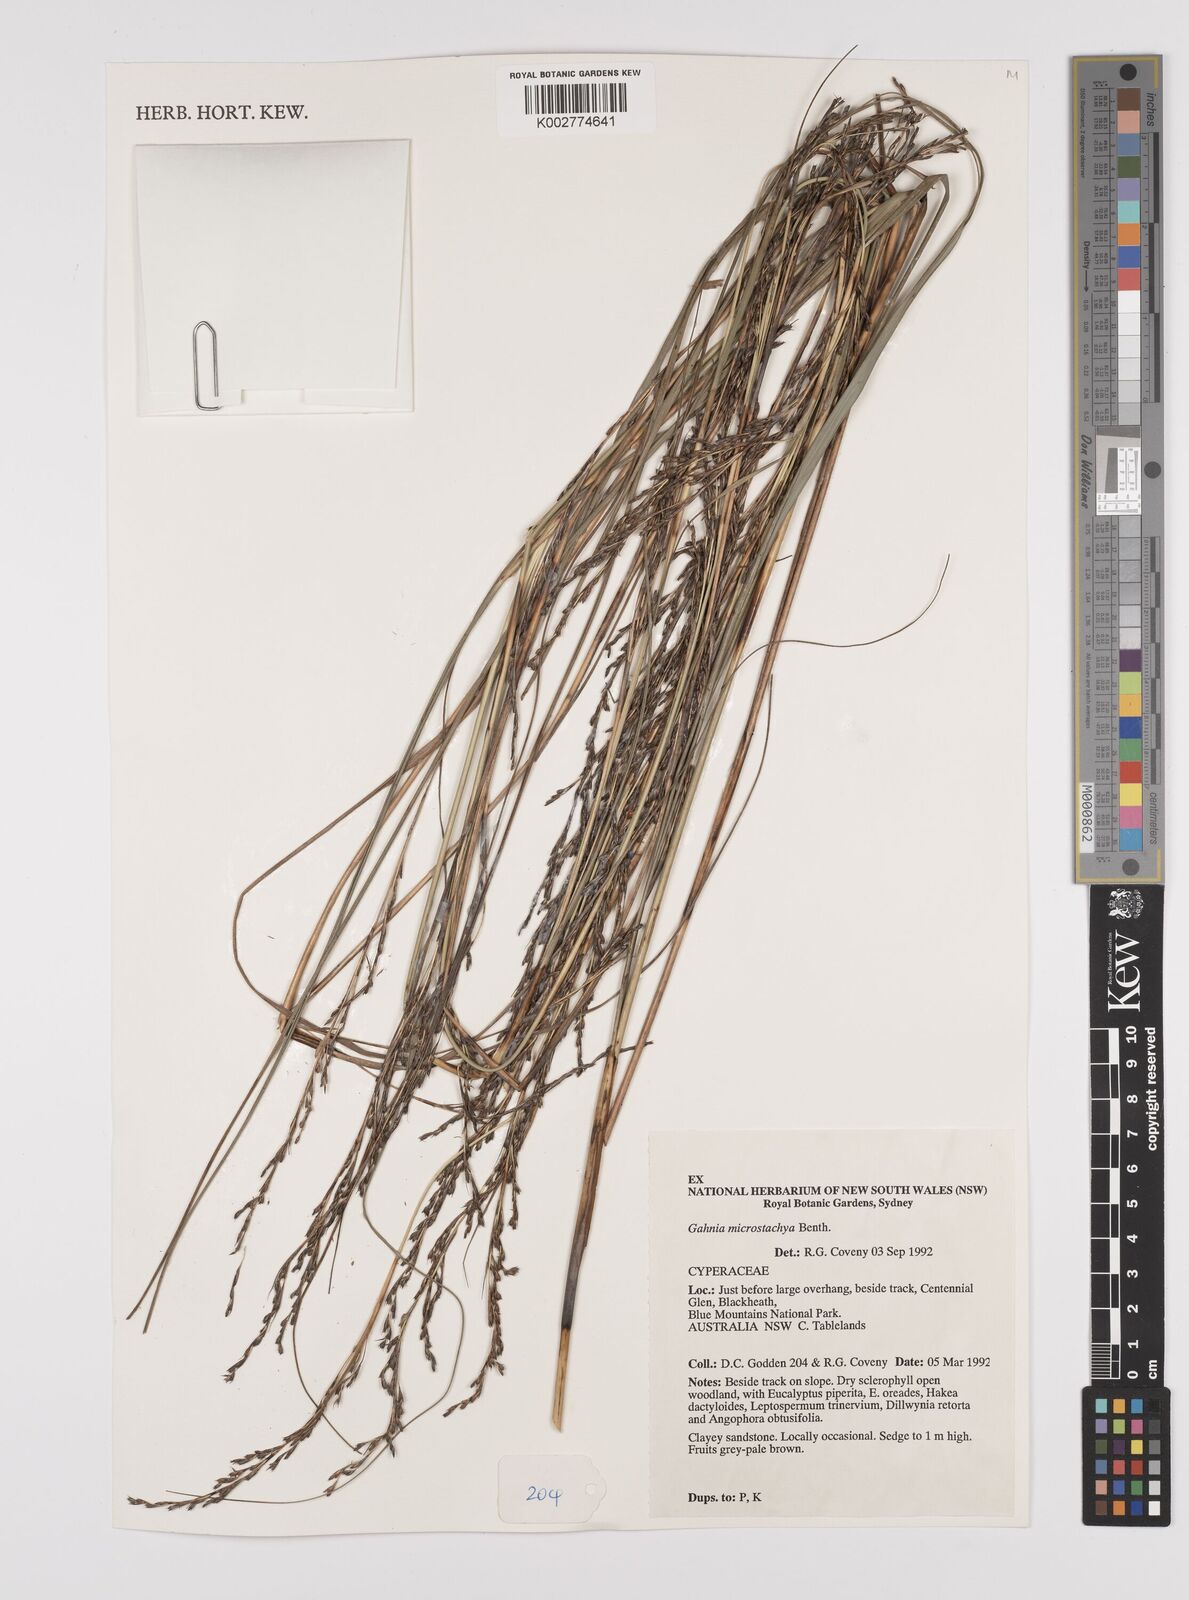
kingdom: Plantae
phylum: Tracheophyta
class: Liliopsida
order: Poales
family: Cyperaceae
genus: Gahnia
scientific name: Gahnia microstachya
